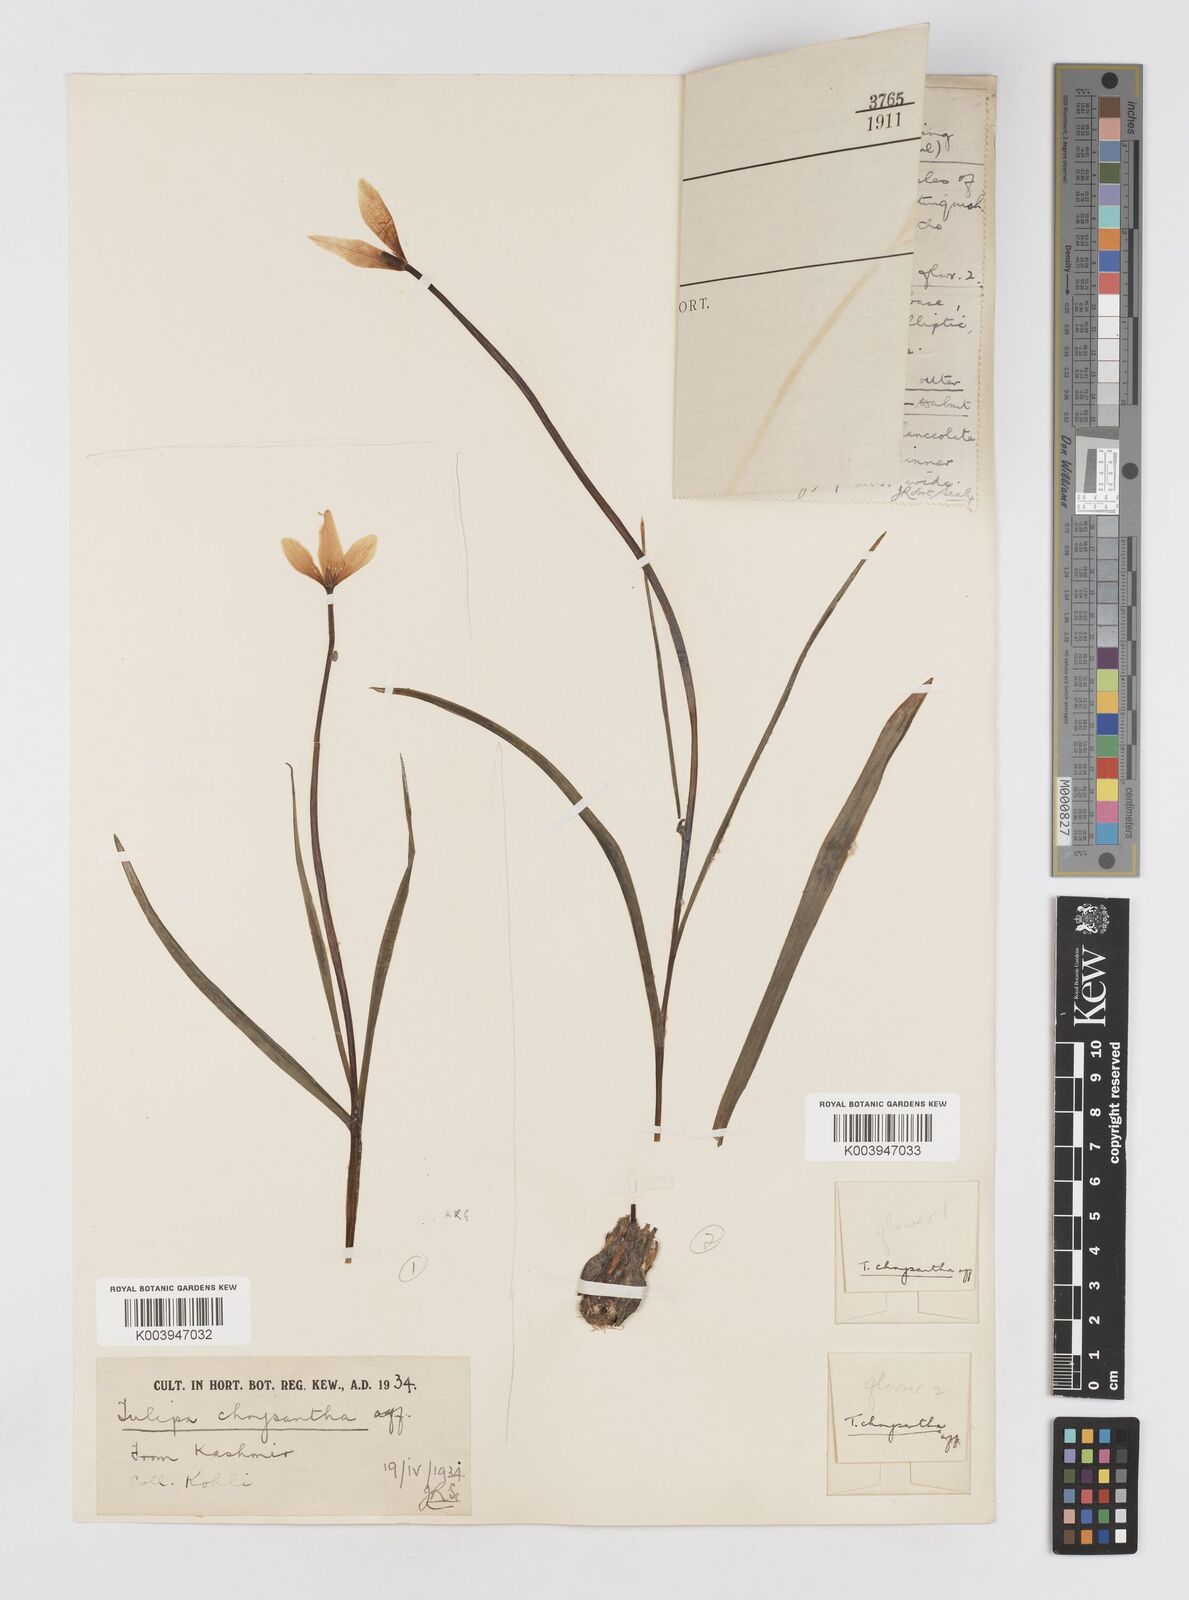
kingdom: Plantae
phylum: Tracheophyta
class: Liliopsida
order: Liliales
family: Liliaceae
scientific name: Liliaceae
